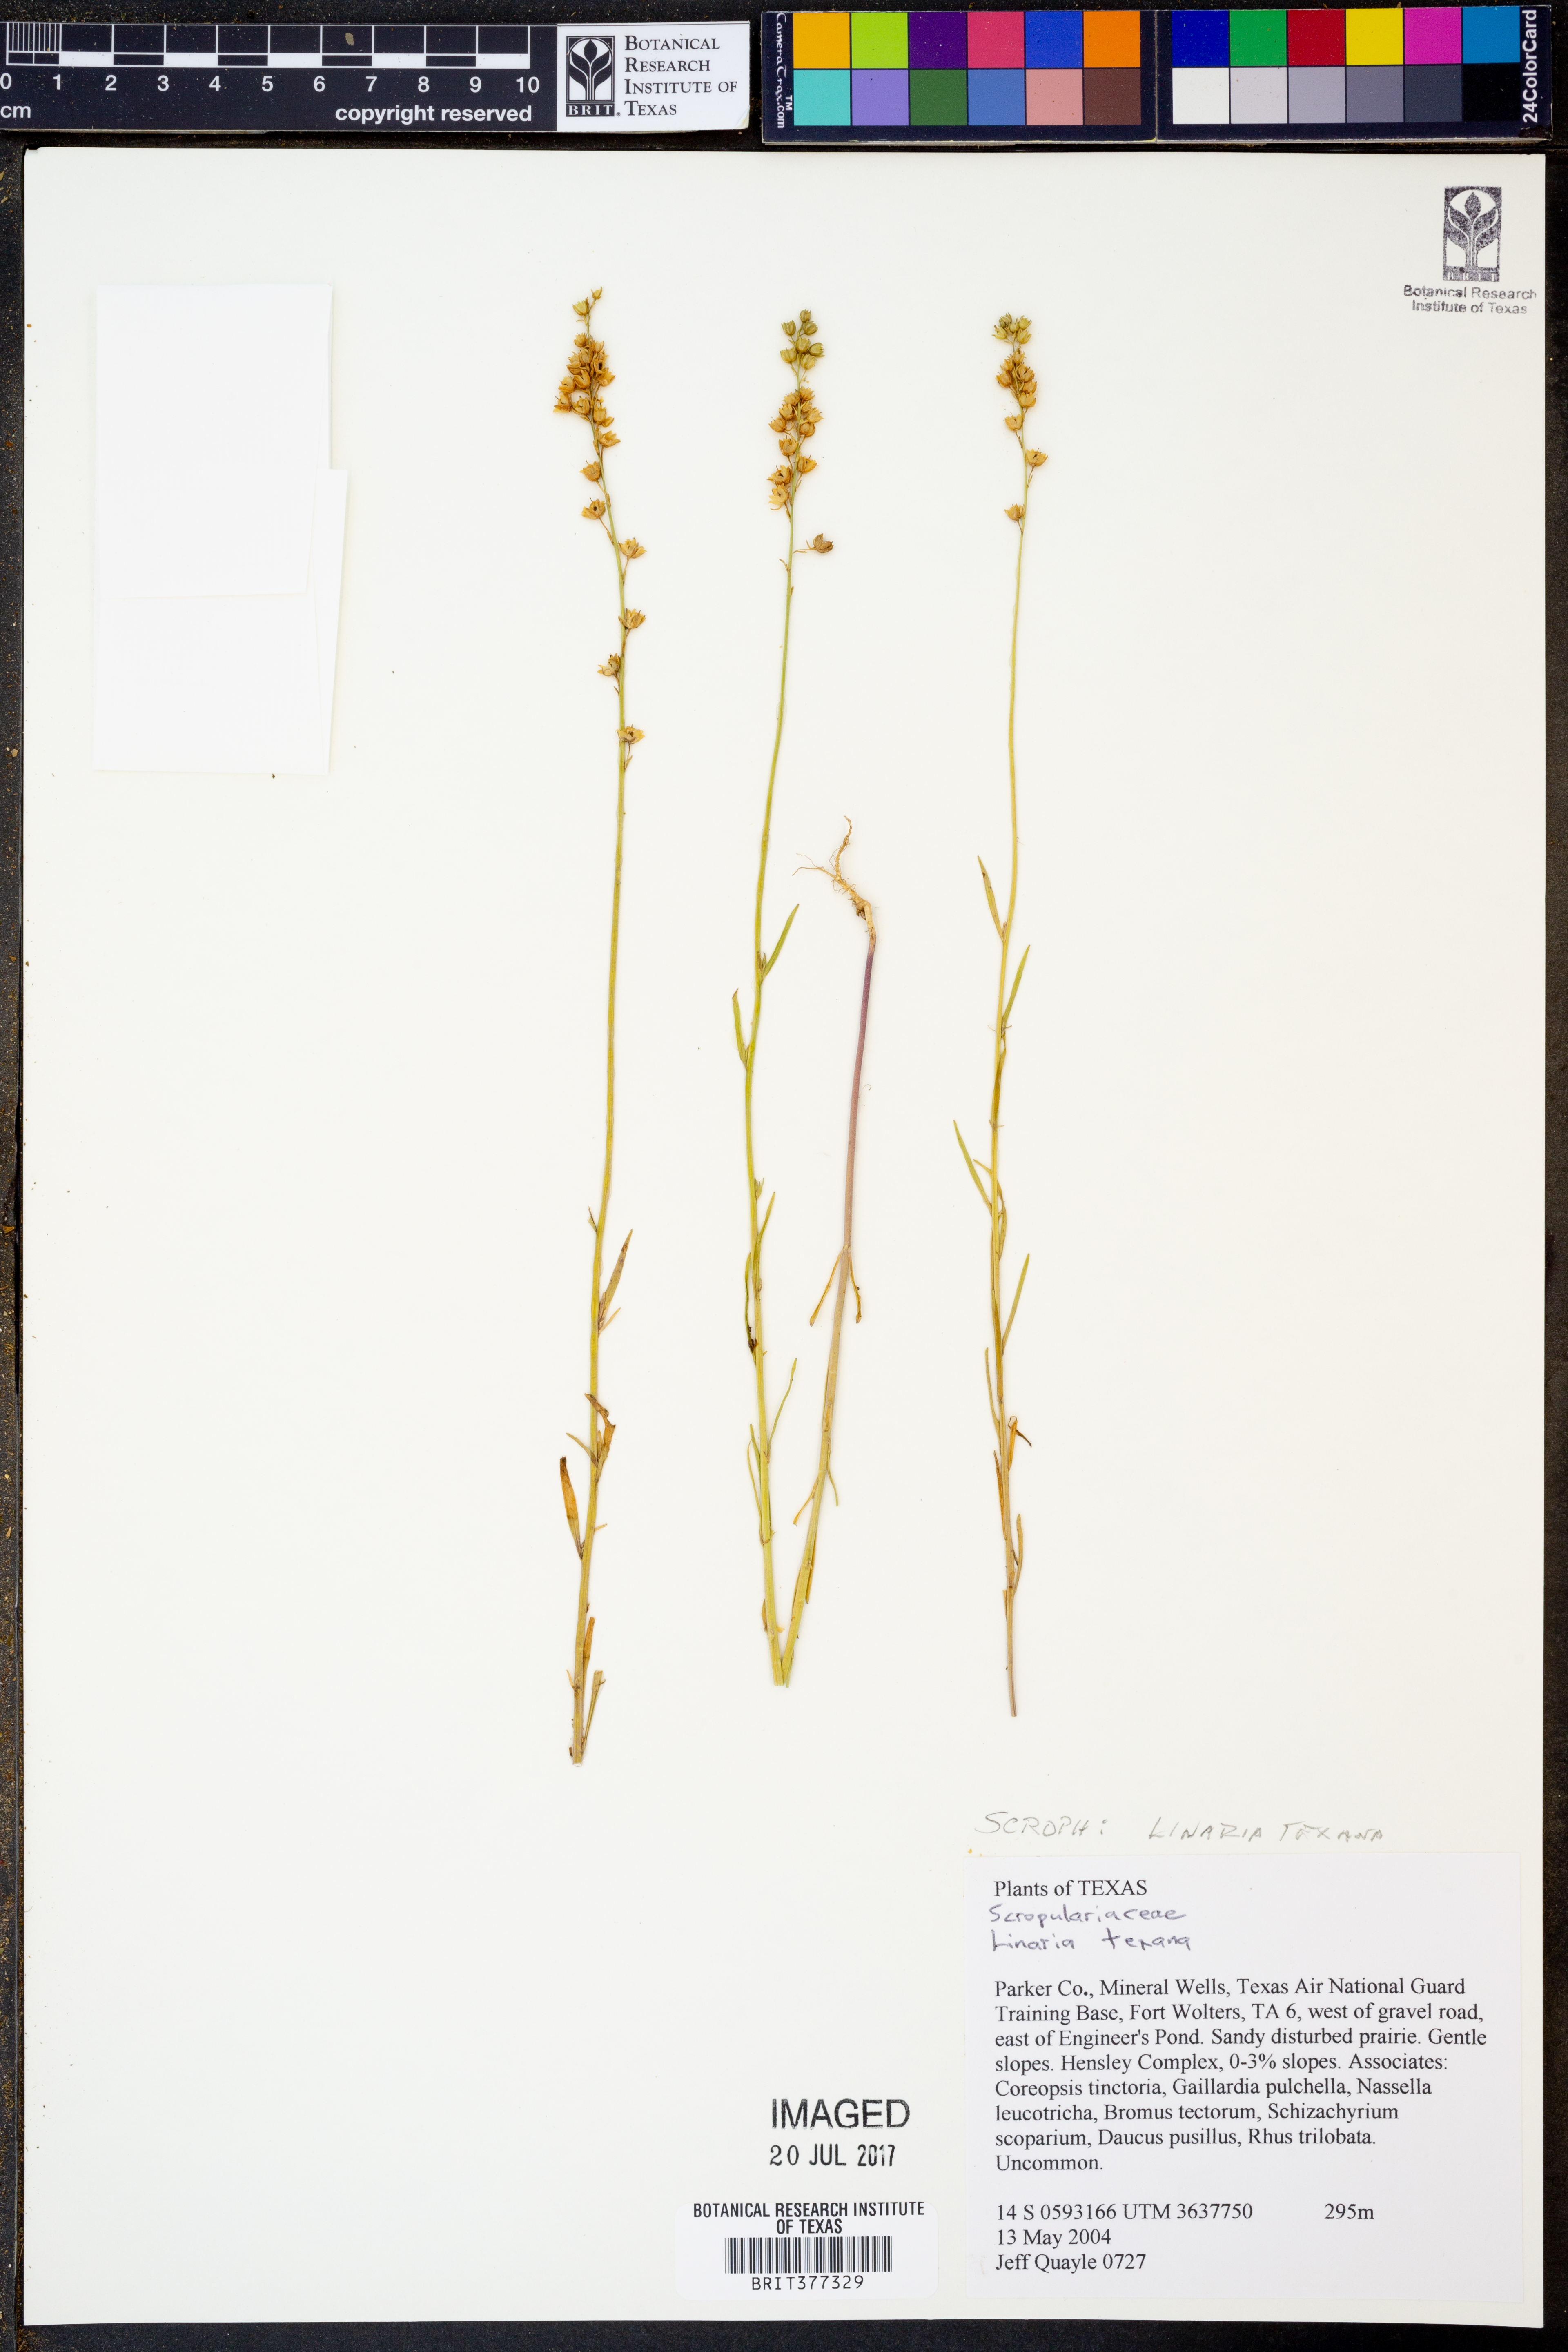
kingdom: Plantae
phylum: Tracheophyta
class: Magnoliopsida
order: Lamiales
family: Plantaginaceae
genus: Nuttallanthus
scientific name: Nuttallanthus texanus
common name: Texas toadflax
